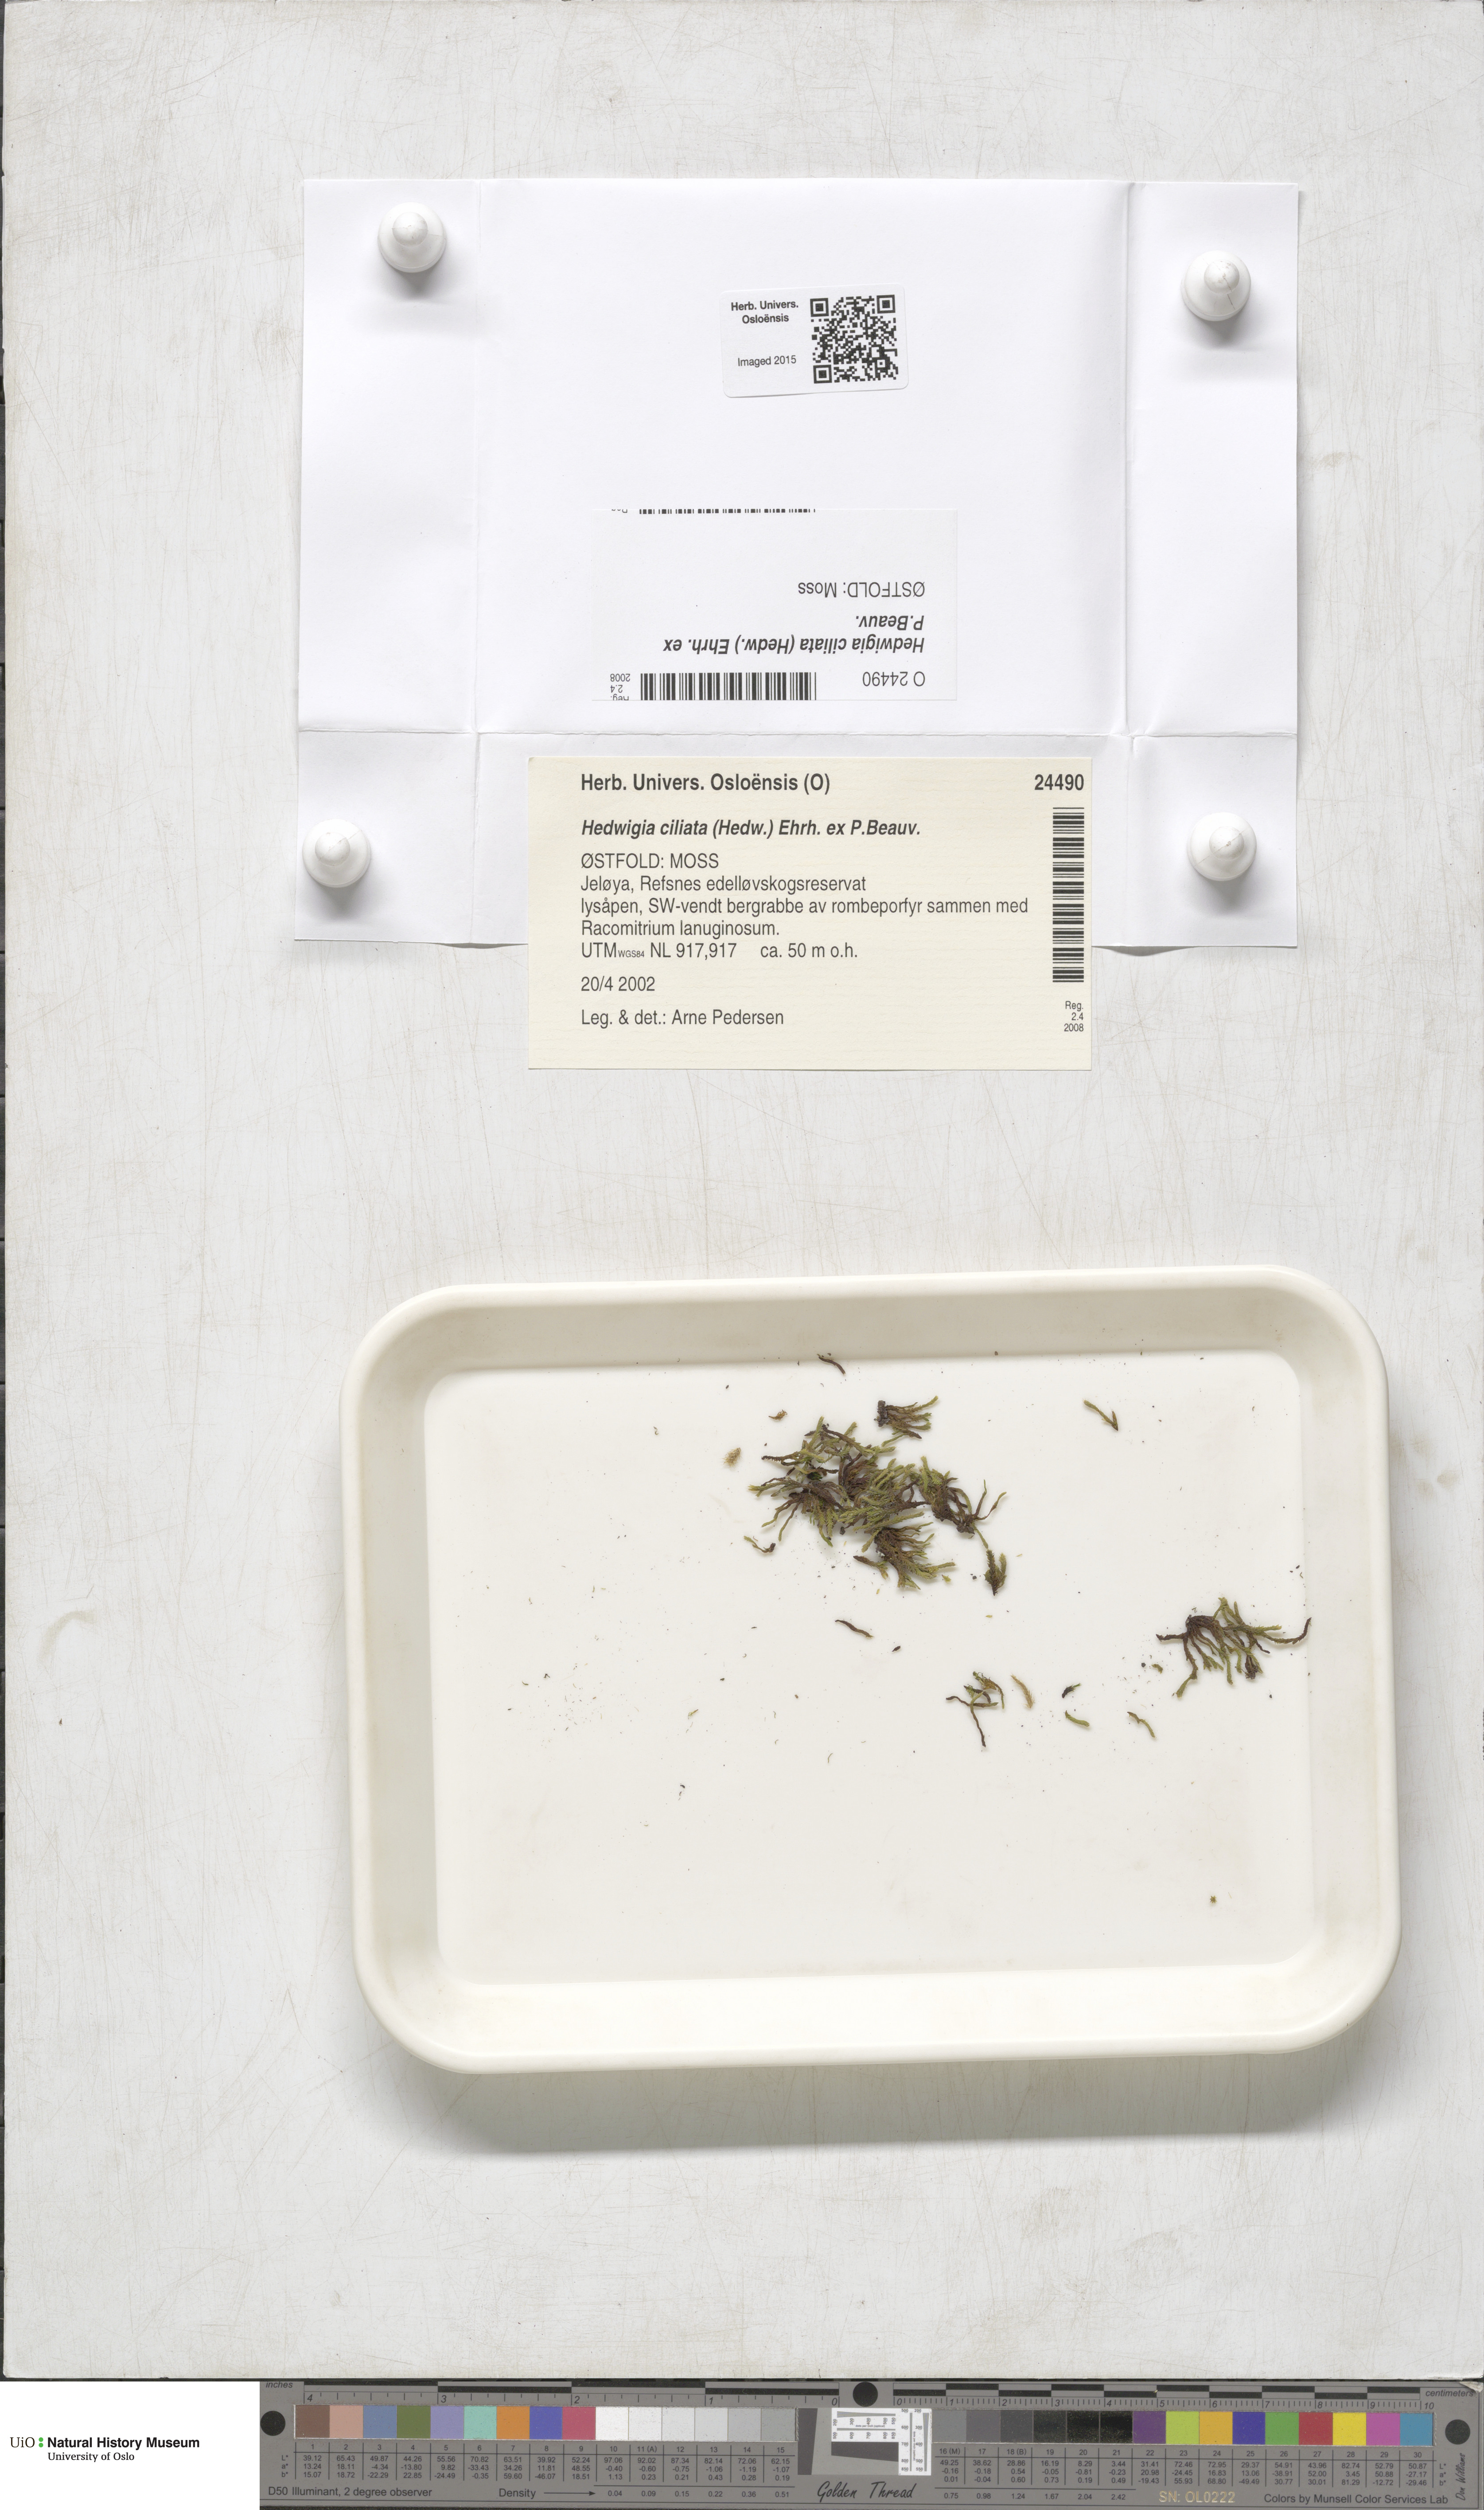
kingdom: Plantae
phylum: Bryophyta
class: Bryopsida
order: Hedwigiales
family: Hedwigiaceae
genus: Hedwigia
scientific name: Hedwigia ciliata
